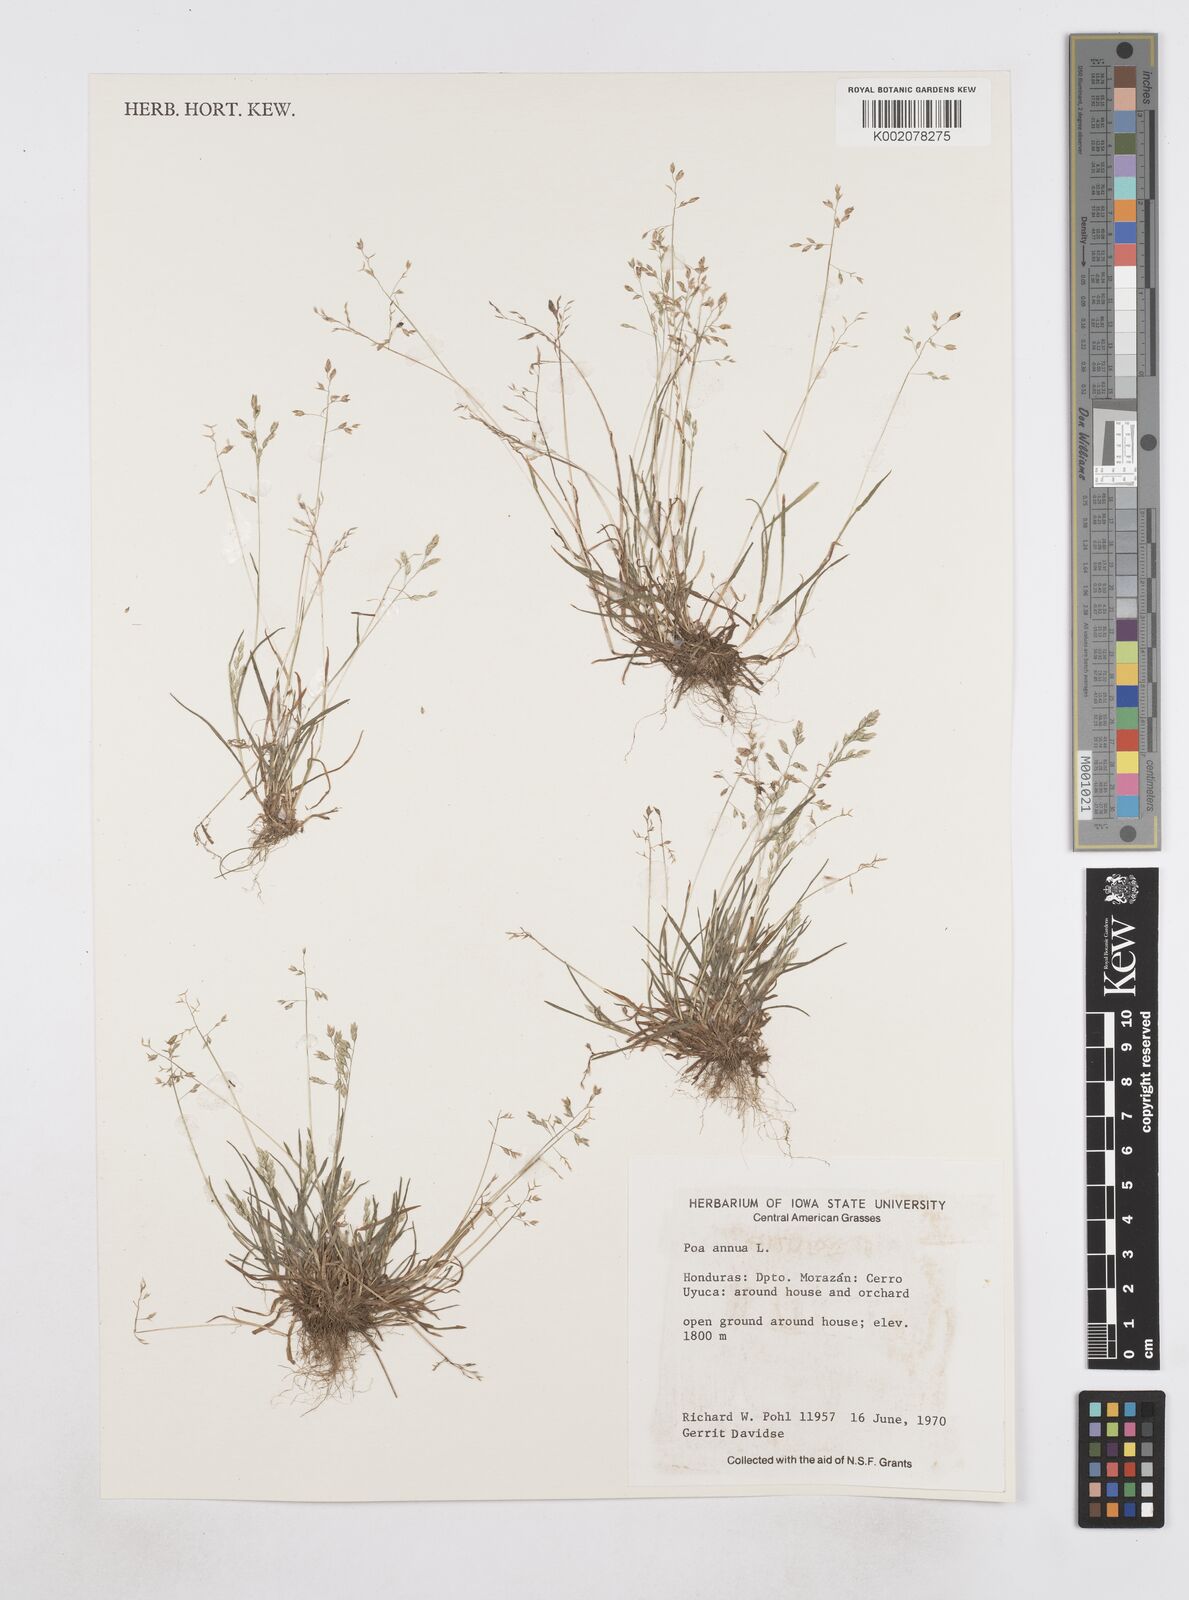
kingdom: Plantae
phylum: Tracheophyta
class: Liliopsida
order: Poales
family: Poaceae
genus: Poa
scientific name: Poa annua
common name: Annual bluegrass
